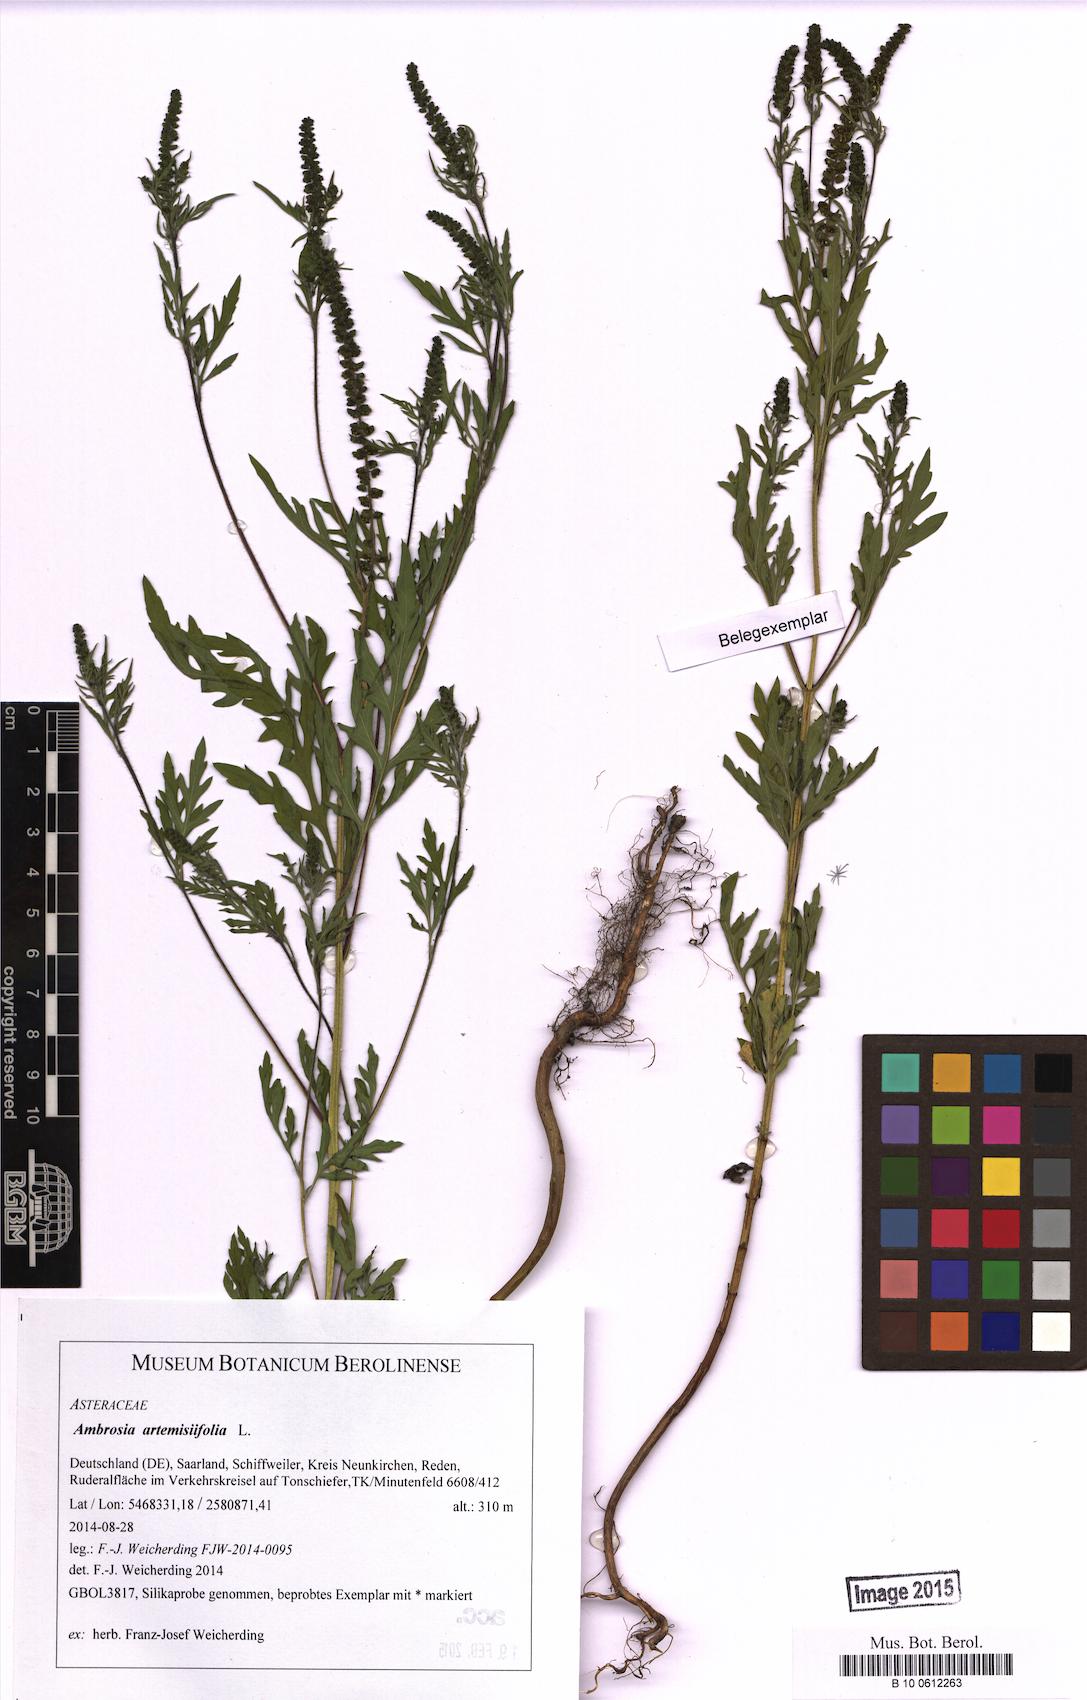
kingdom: Plantae
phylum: Tracheophyta
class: Magnoliopsida
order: Asterales
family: Asteraceae
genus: Ambrosia
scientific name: Ambrosia artemisiifolia
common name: Annual ragweed
